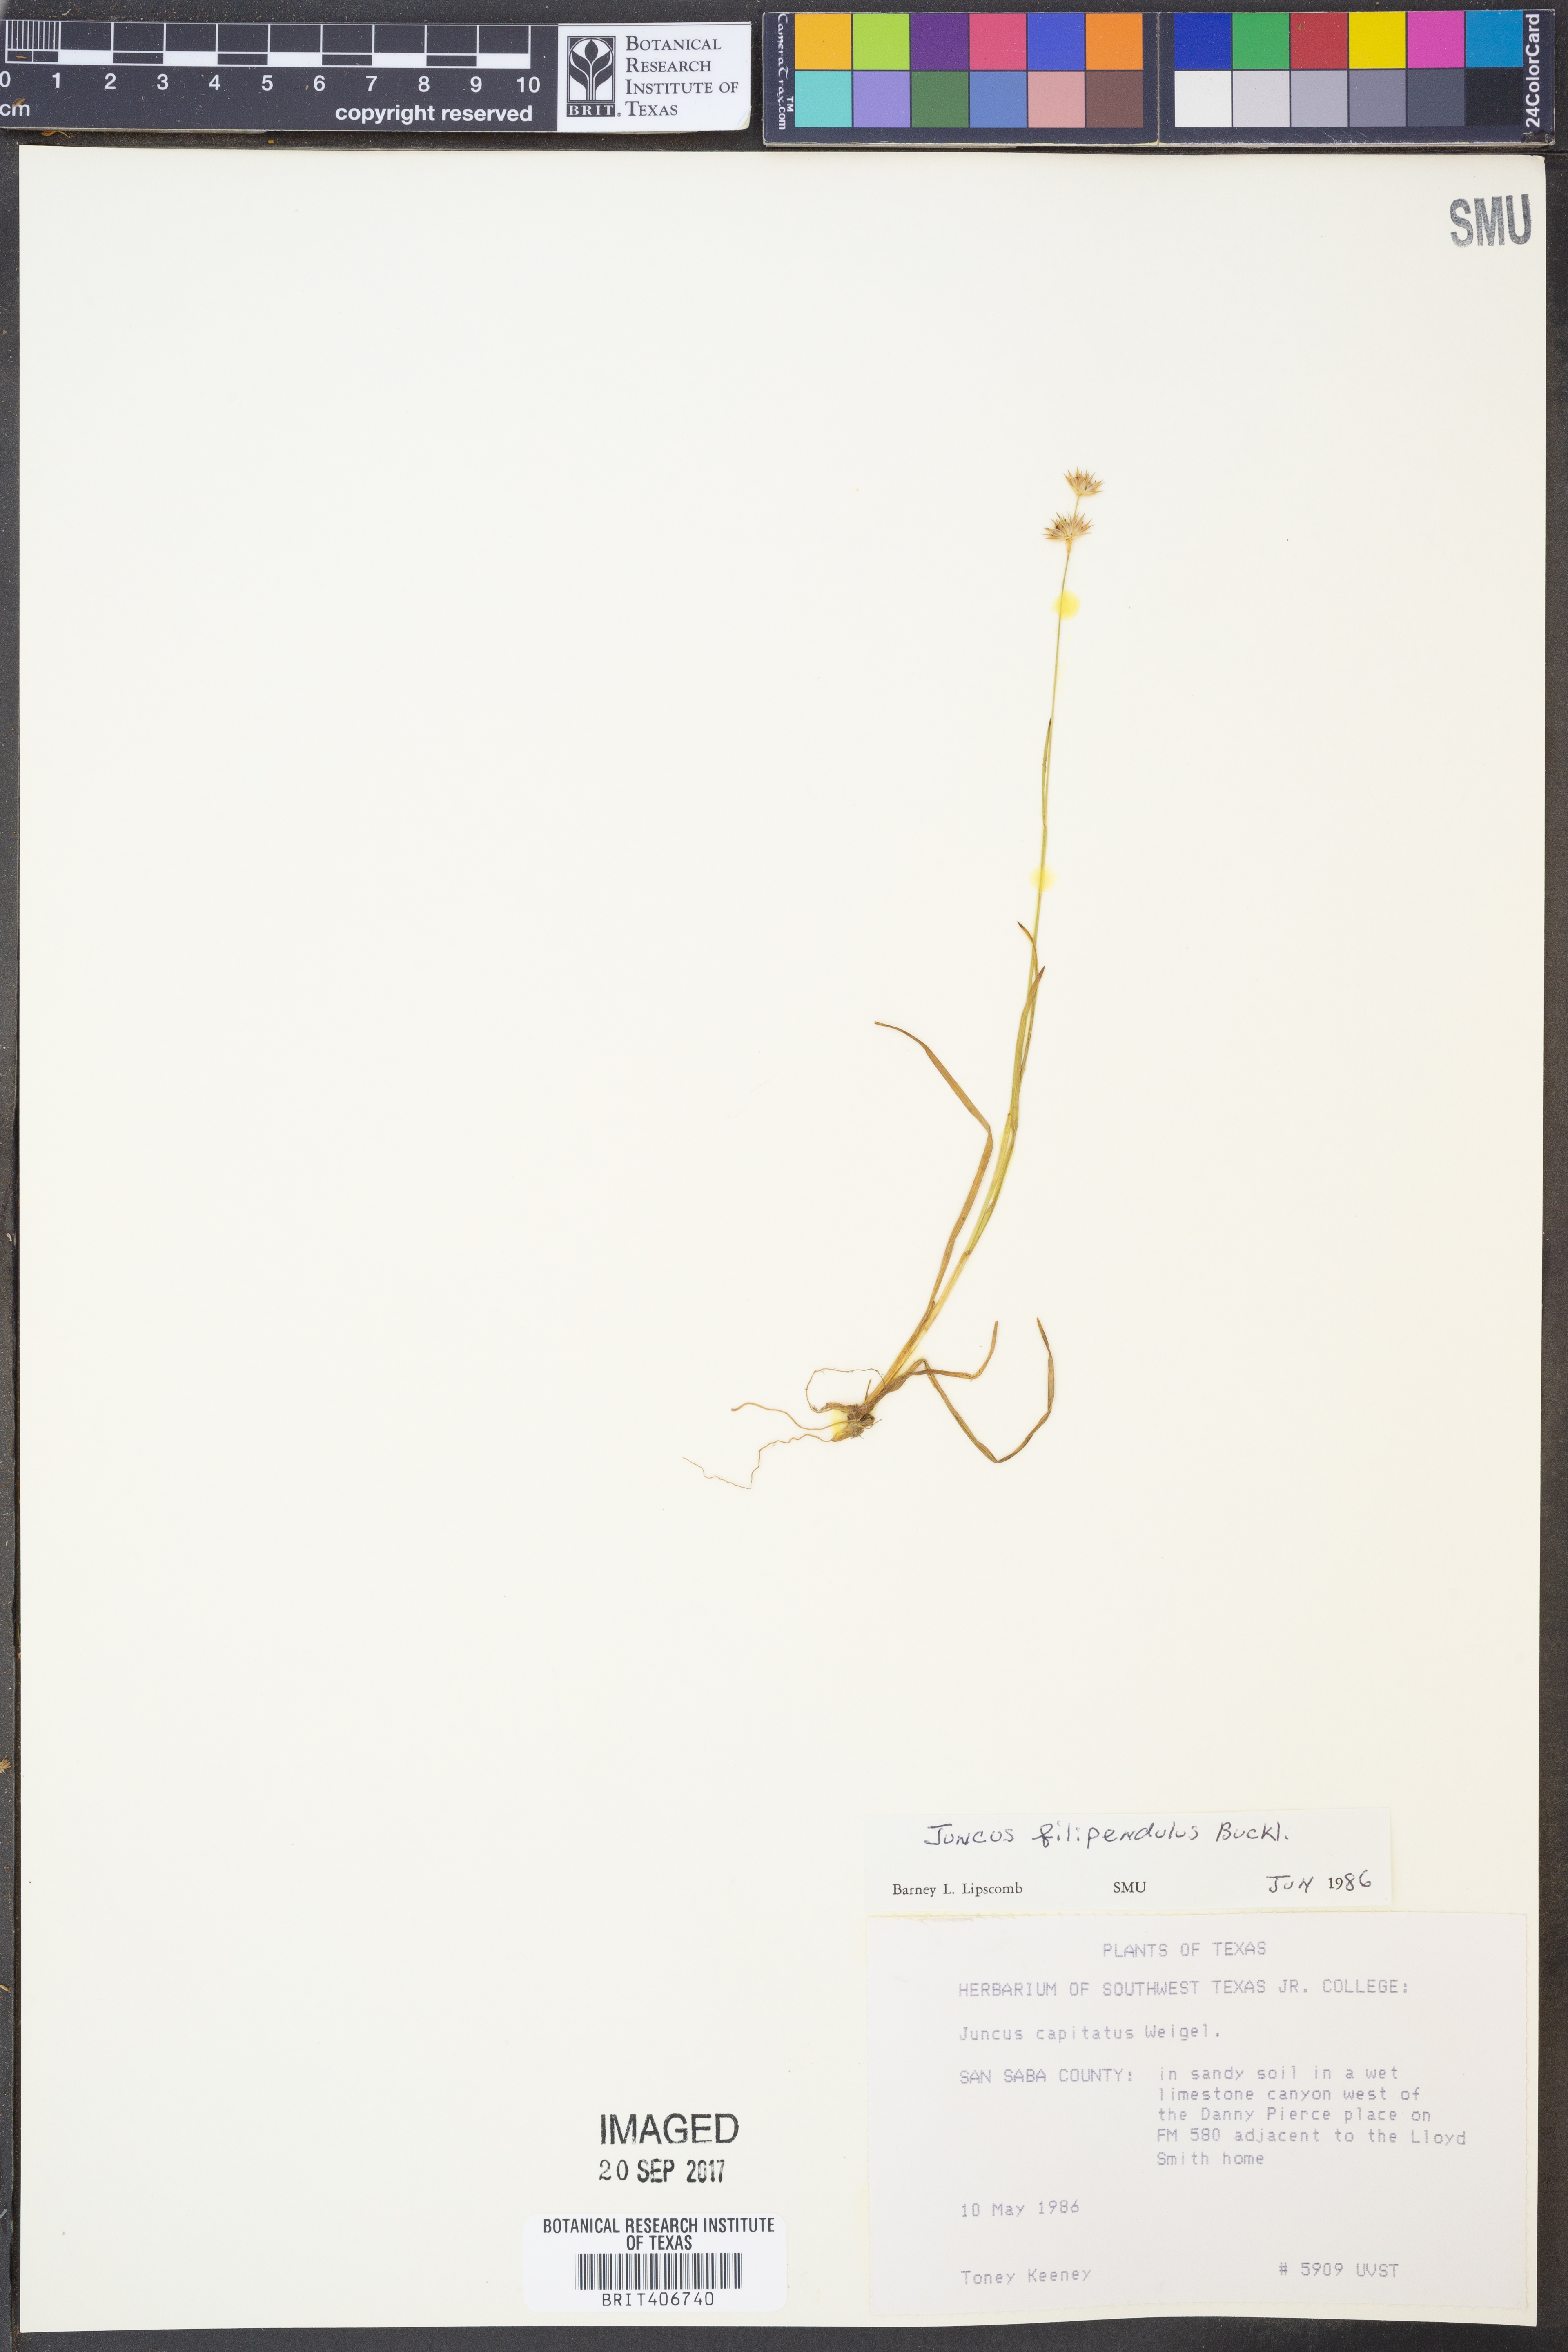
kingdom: Plantae
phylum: Tracheophyta
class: Liliopsida
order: Poales
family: Juncaceae
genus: Juncus
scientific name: Juncus filipendulus
